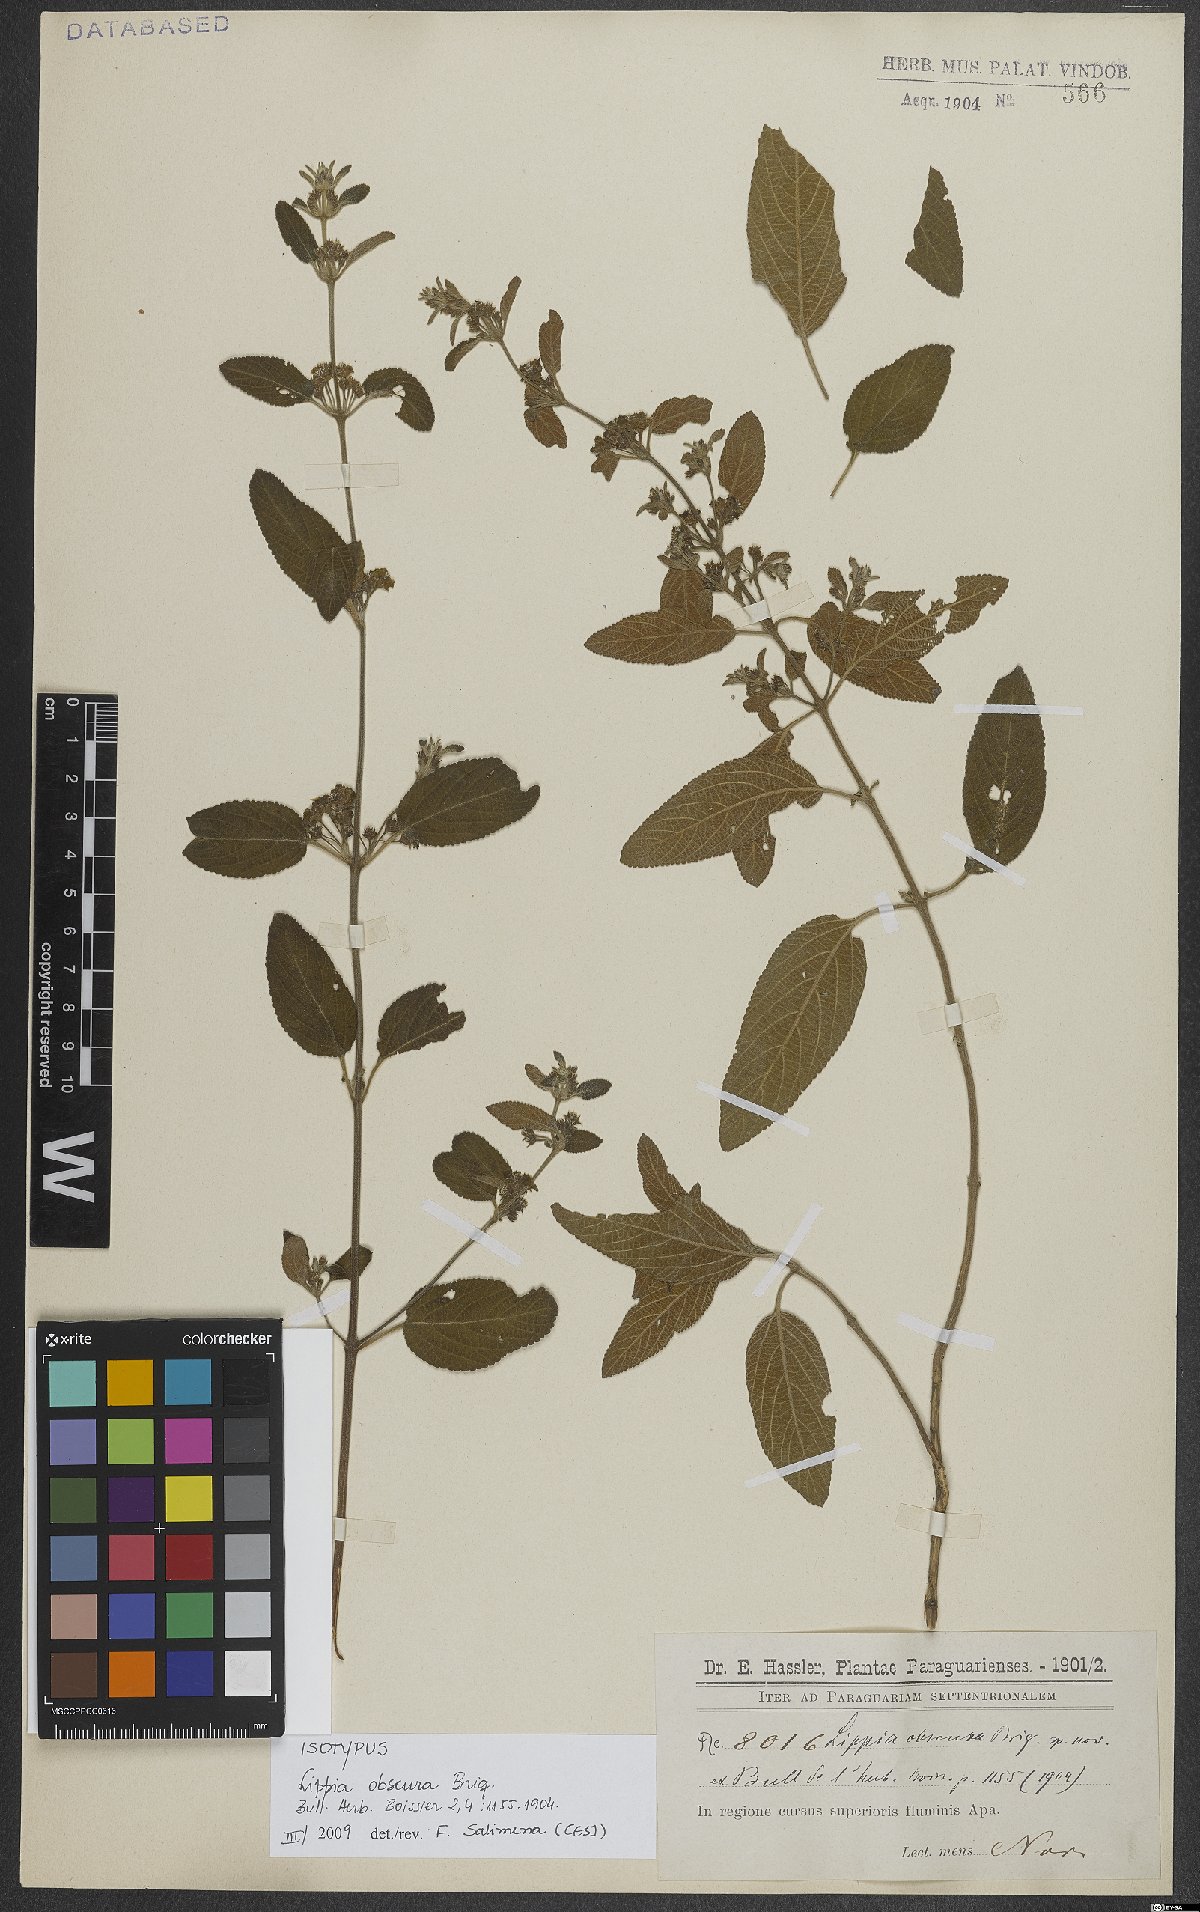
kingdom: Plantae
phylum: Tracheophyta
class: Magnoliopsida
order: Lamiales
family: Verbenaceae
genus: Lippia
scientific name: Lippia origanoides
